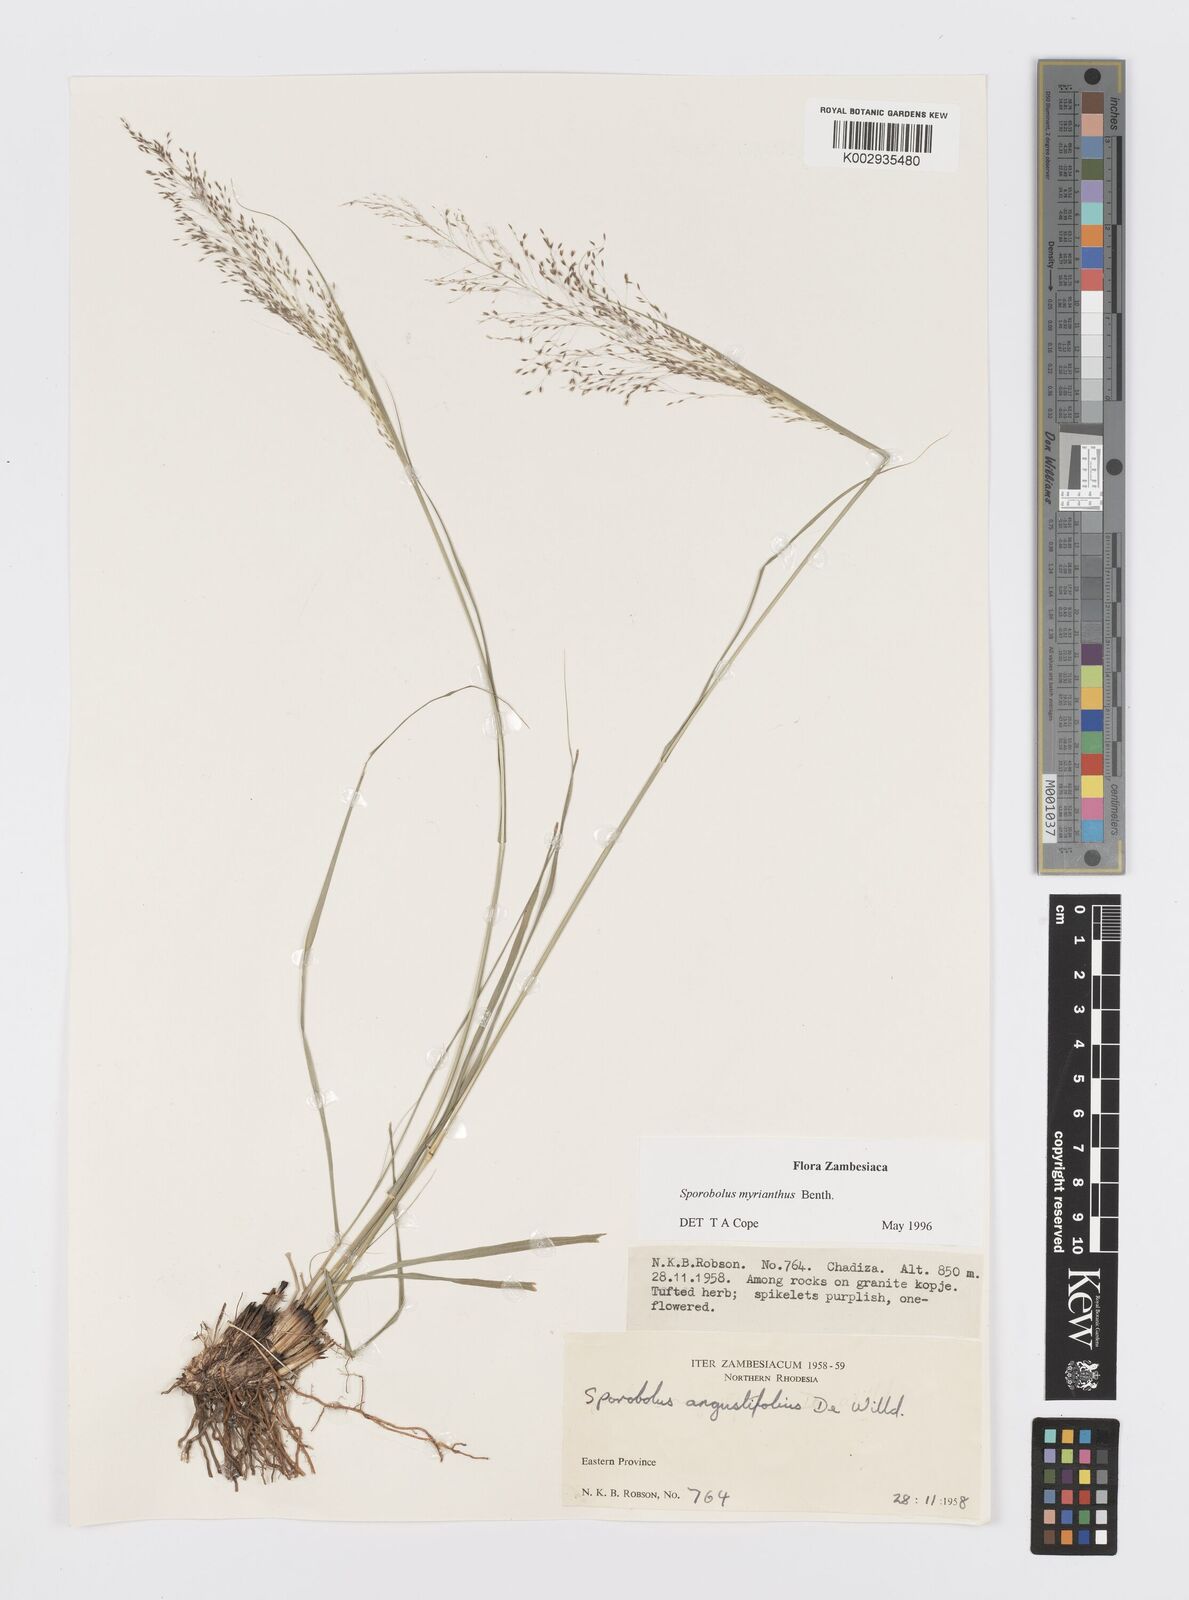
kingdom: Plantae
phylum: Tracheophyta
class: Liliopsida
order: Poales
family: Poaceae
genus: Sporobolus
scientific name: Sporobolus myrianthus
